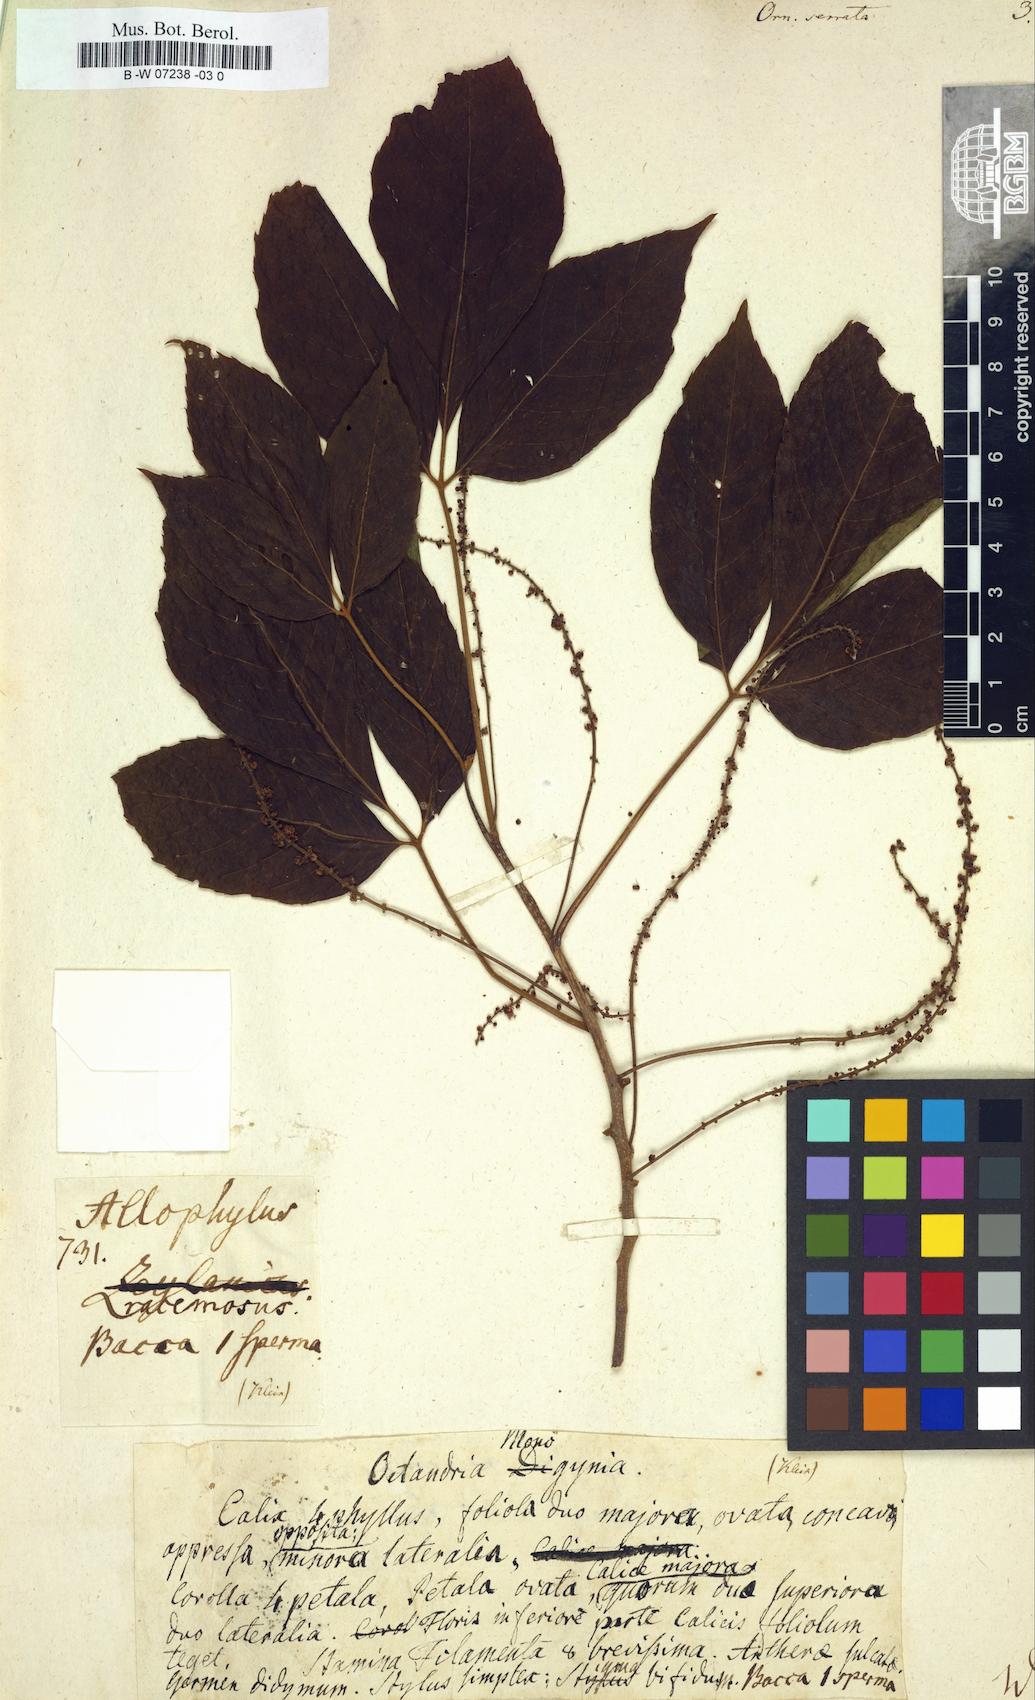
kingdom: Plantae
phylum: Tracheophyta
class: Magnoliopsida
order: Sapindales
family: Sapindaceae
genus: Allophylus
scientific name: Allophylus serratus
